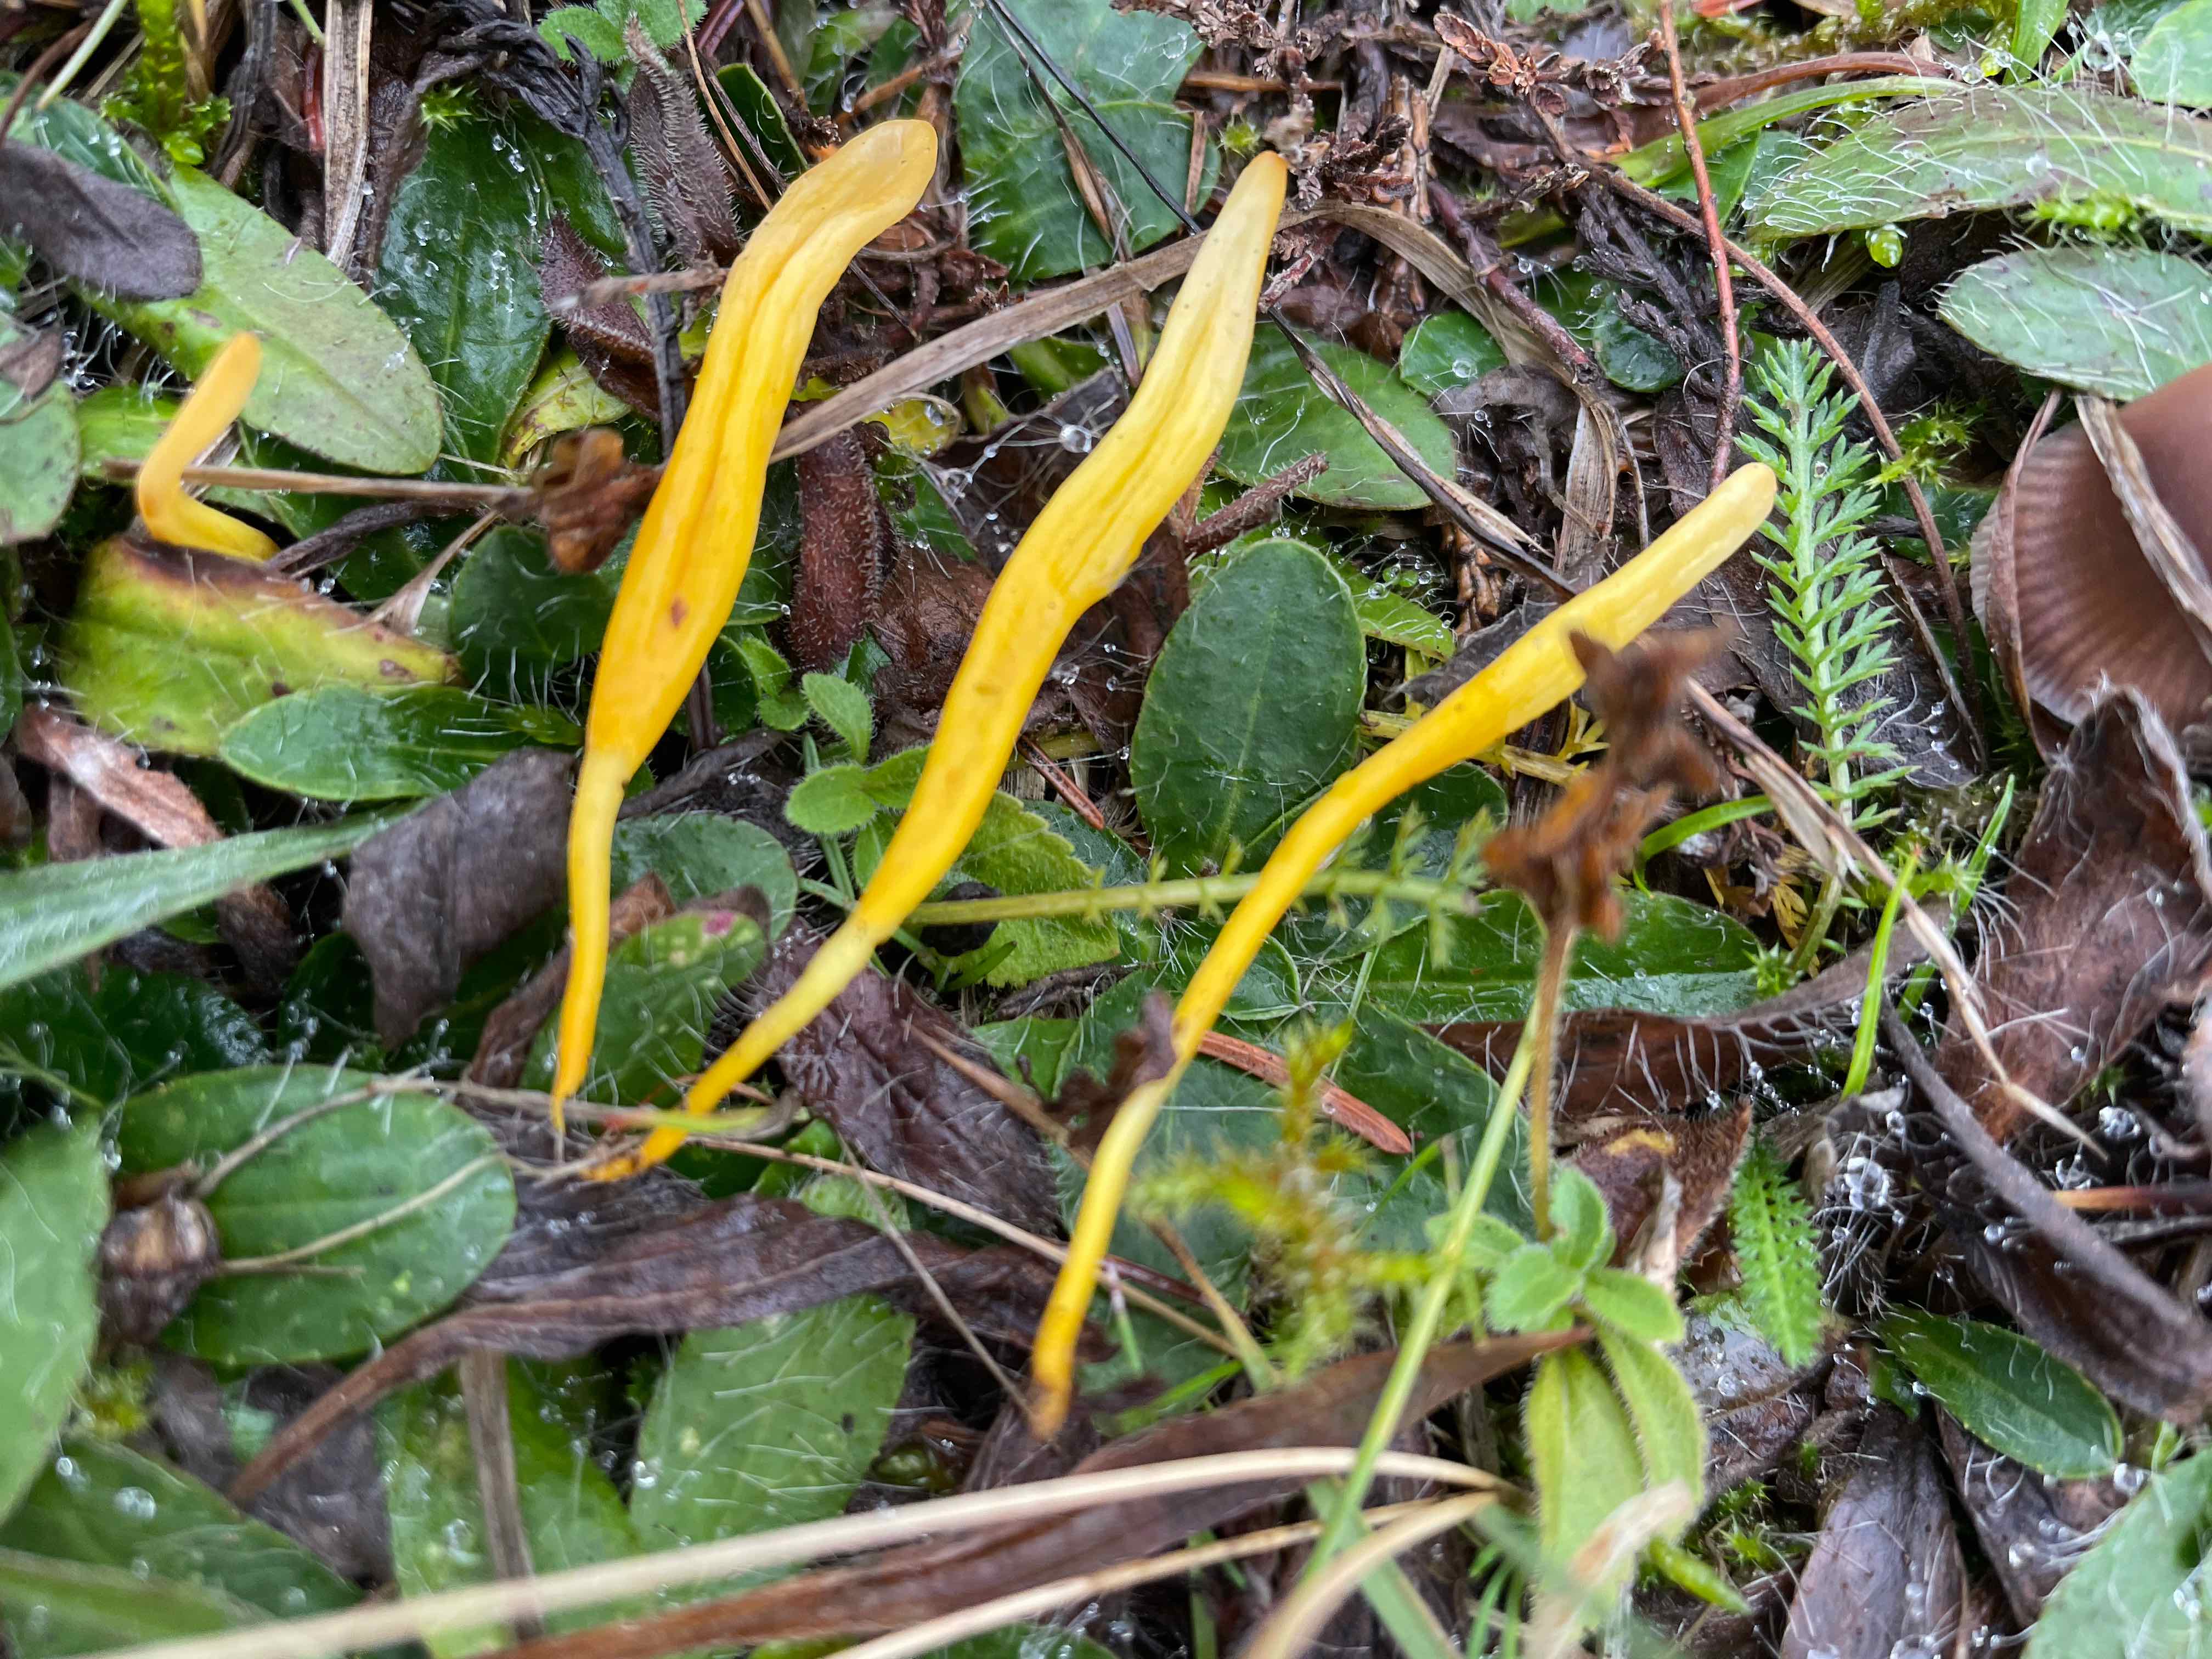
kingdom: Fungi
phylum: Basidiomycota
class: Agaricomycetes
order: Agaricales
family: Clavariaceae
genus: Clavulinopsis
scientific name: Clavulinopsis
